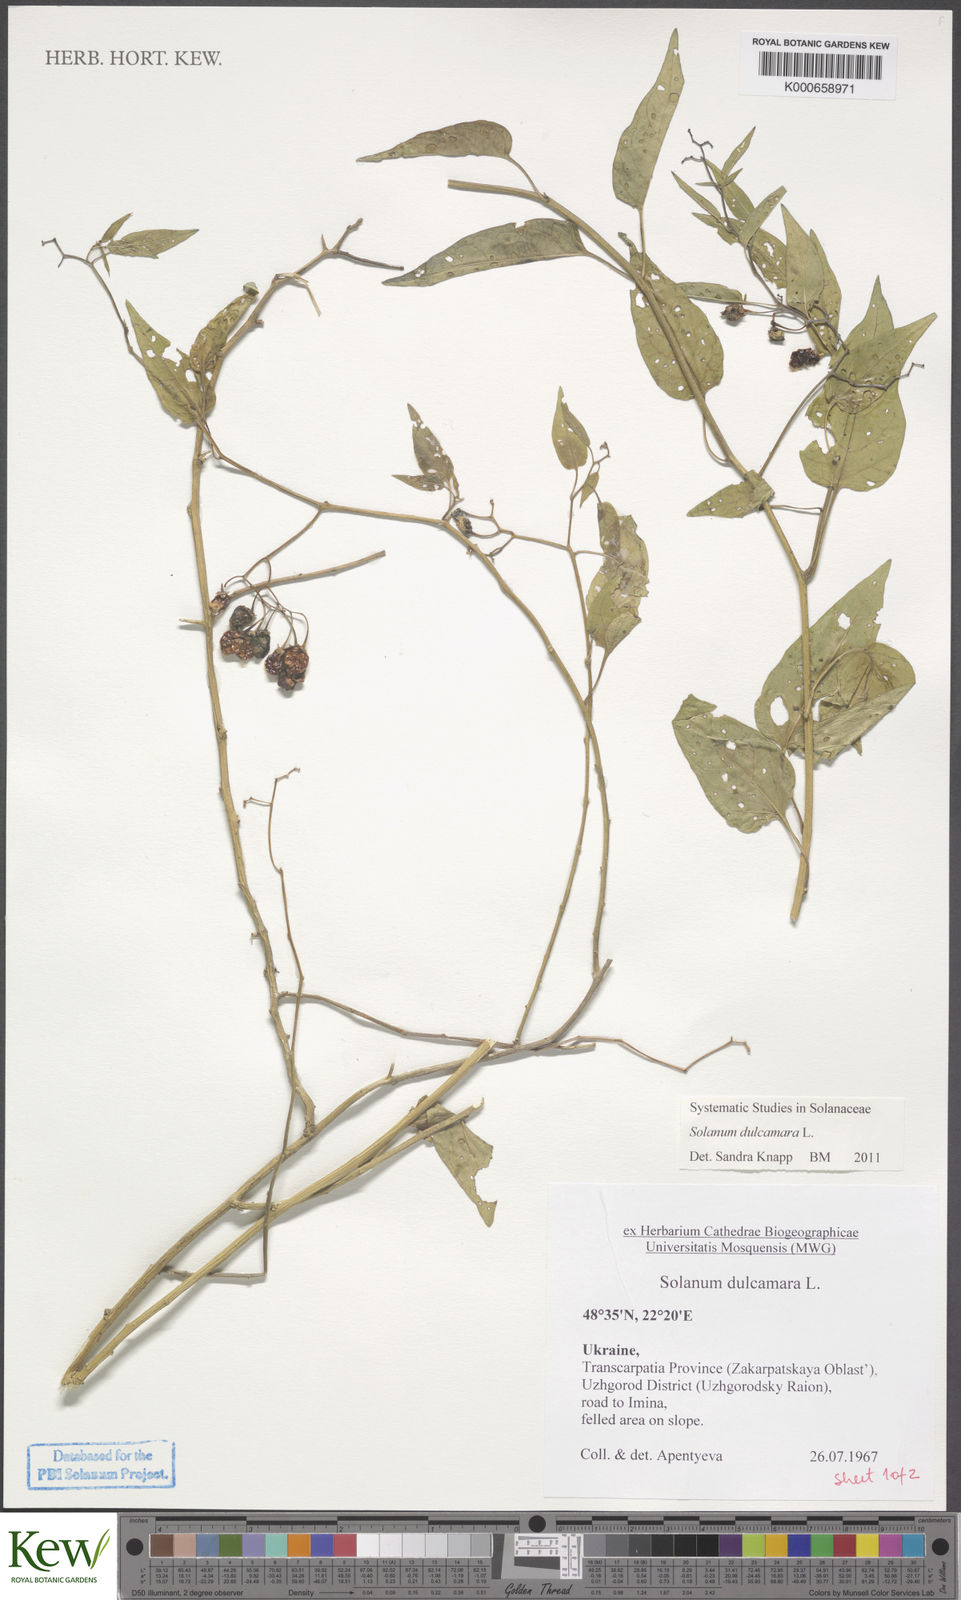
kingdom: Plantae
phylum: Tracheophyta
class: Magnoliopsida
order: Solanales
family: Solanaceae
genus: Solanum
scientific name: Solanum dulcamara
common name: Climbing nightshade
